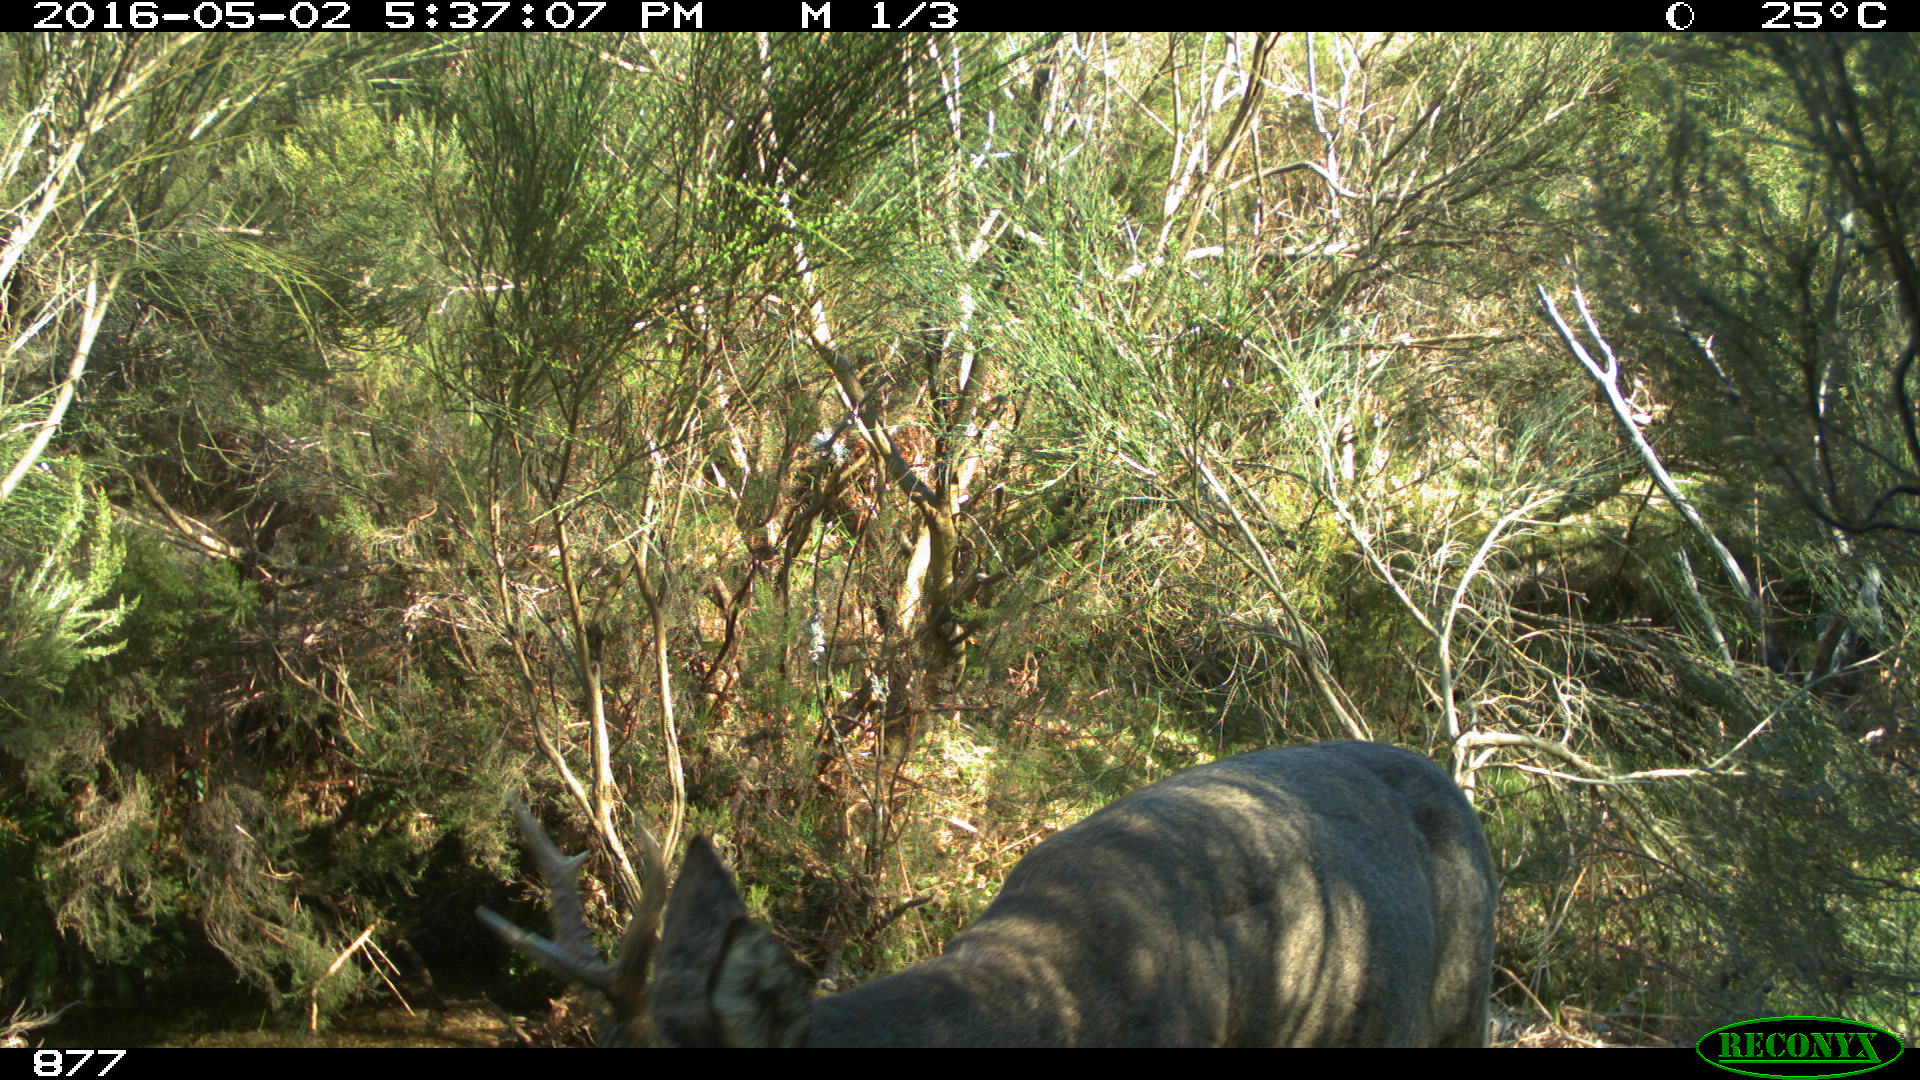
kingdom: Animalia
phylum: Chordata
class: Mammalia
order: Artiodactyla
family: Cervidae
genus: Capreolus
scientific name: Capreolus capreolus
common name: Western roe deer
